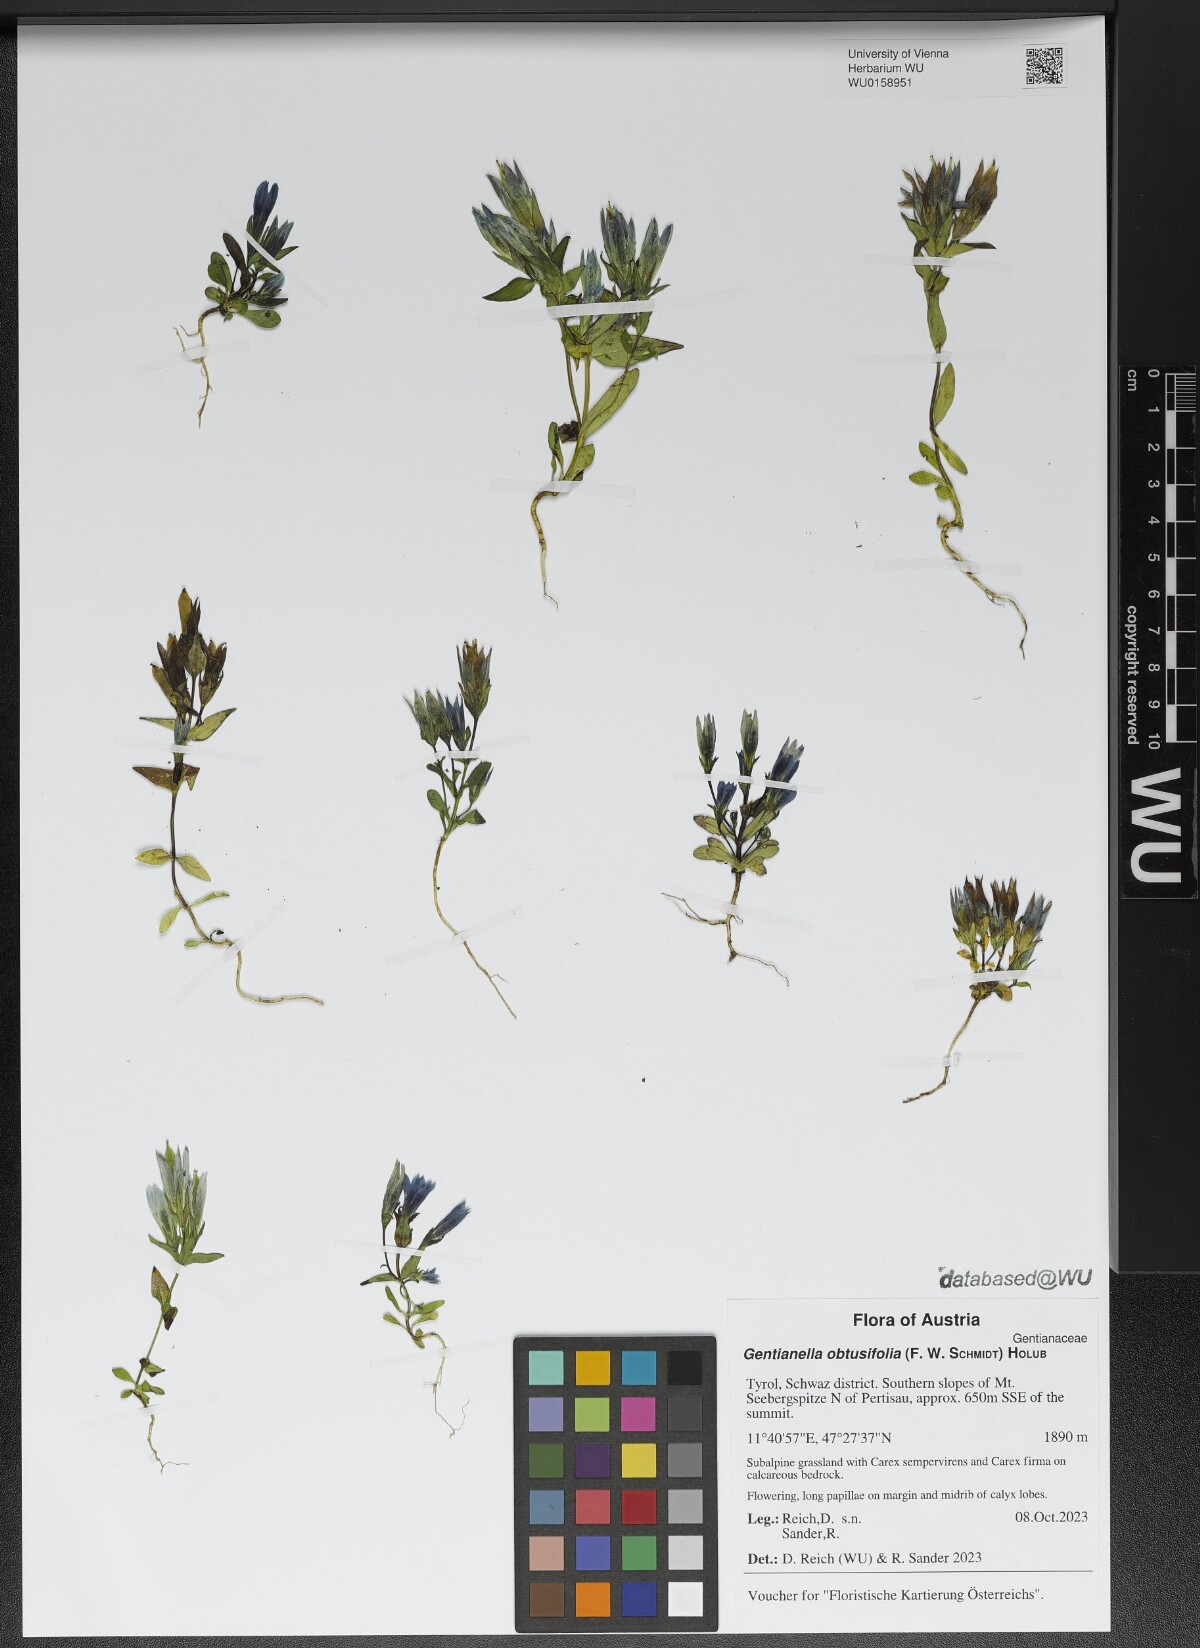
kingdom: Plantae
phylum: Tracheophyta
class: Magnoliopsida
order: Gentianales
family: Gentianaceae
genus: Gentianella
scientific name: Gentianella obtusifolia
